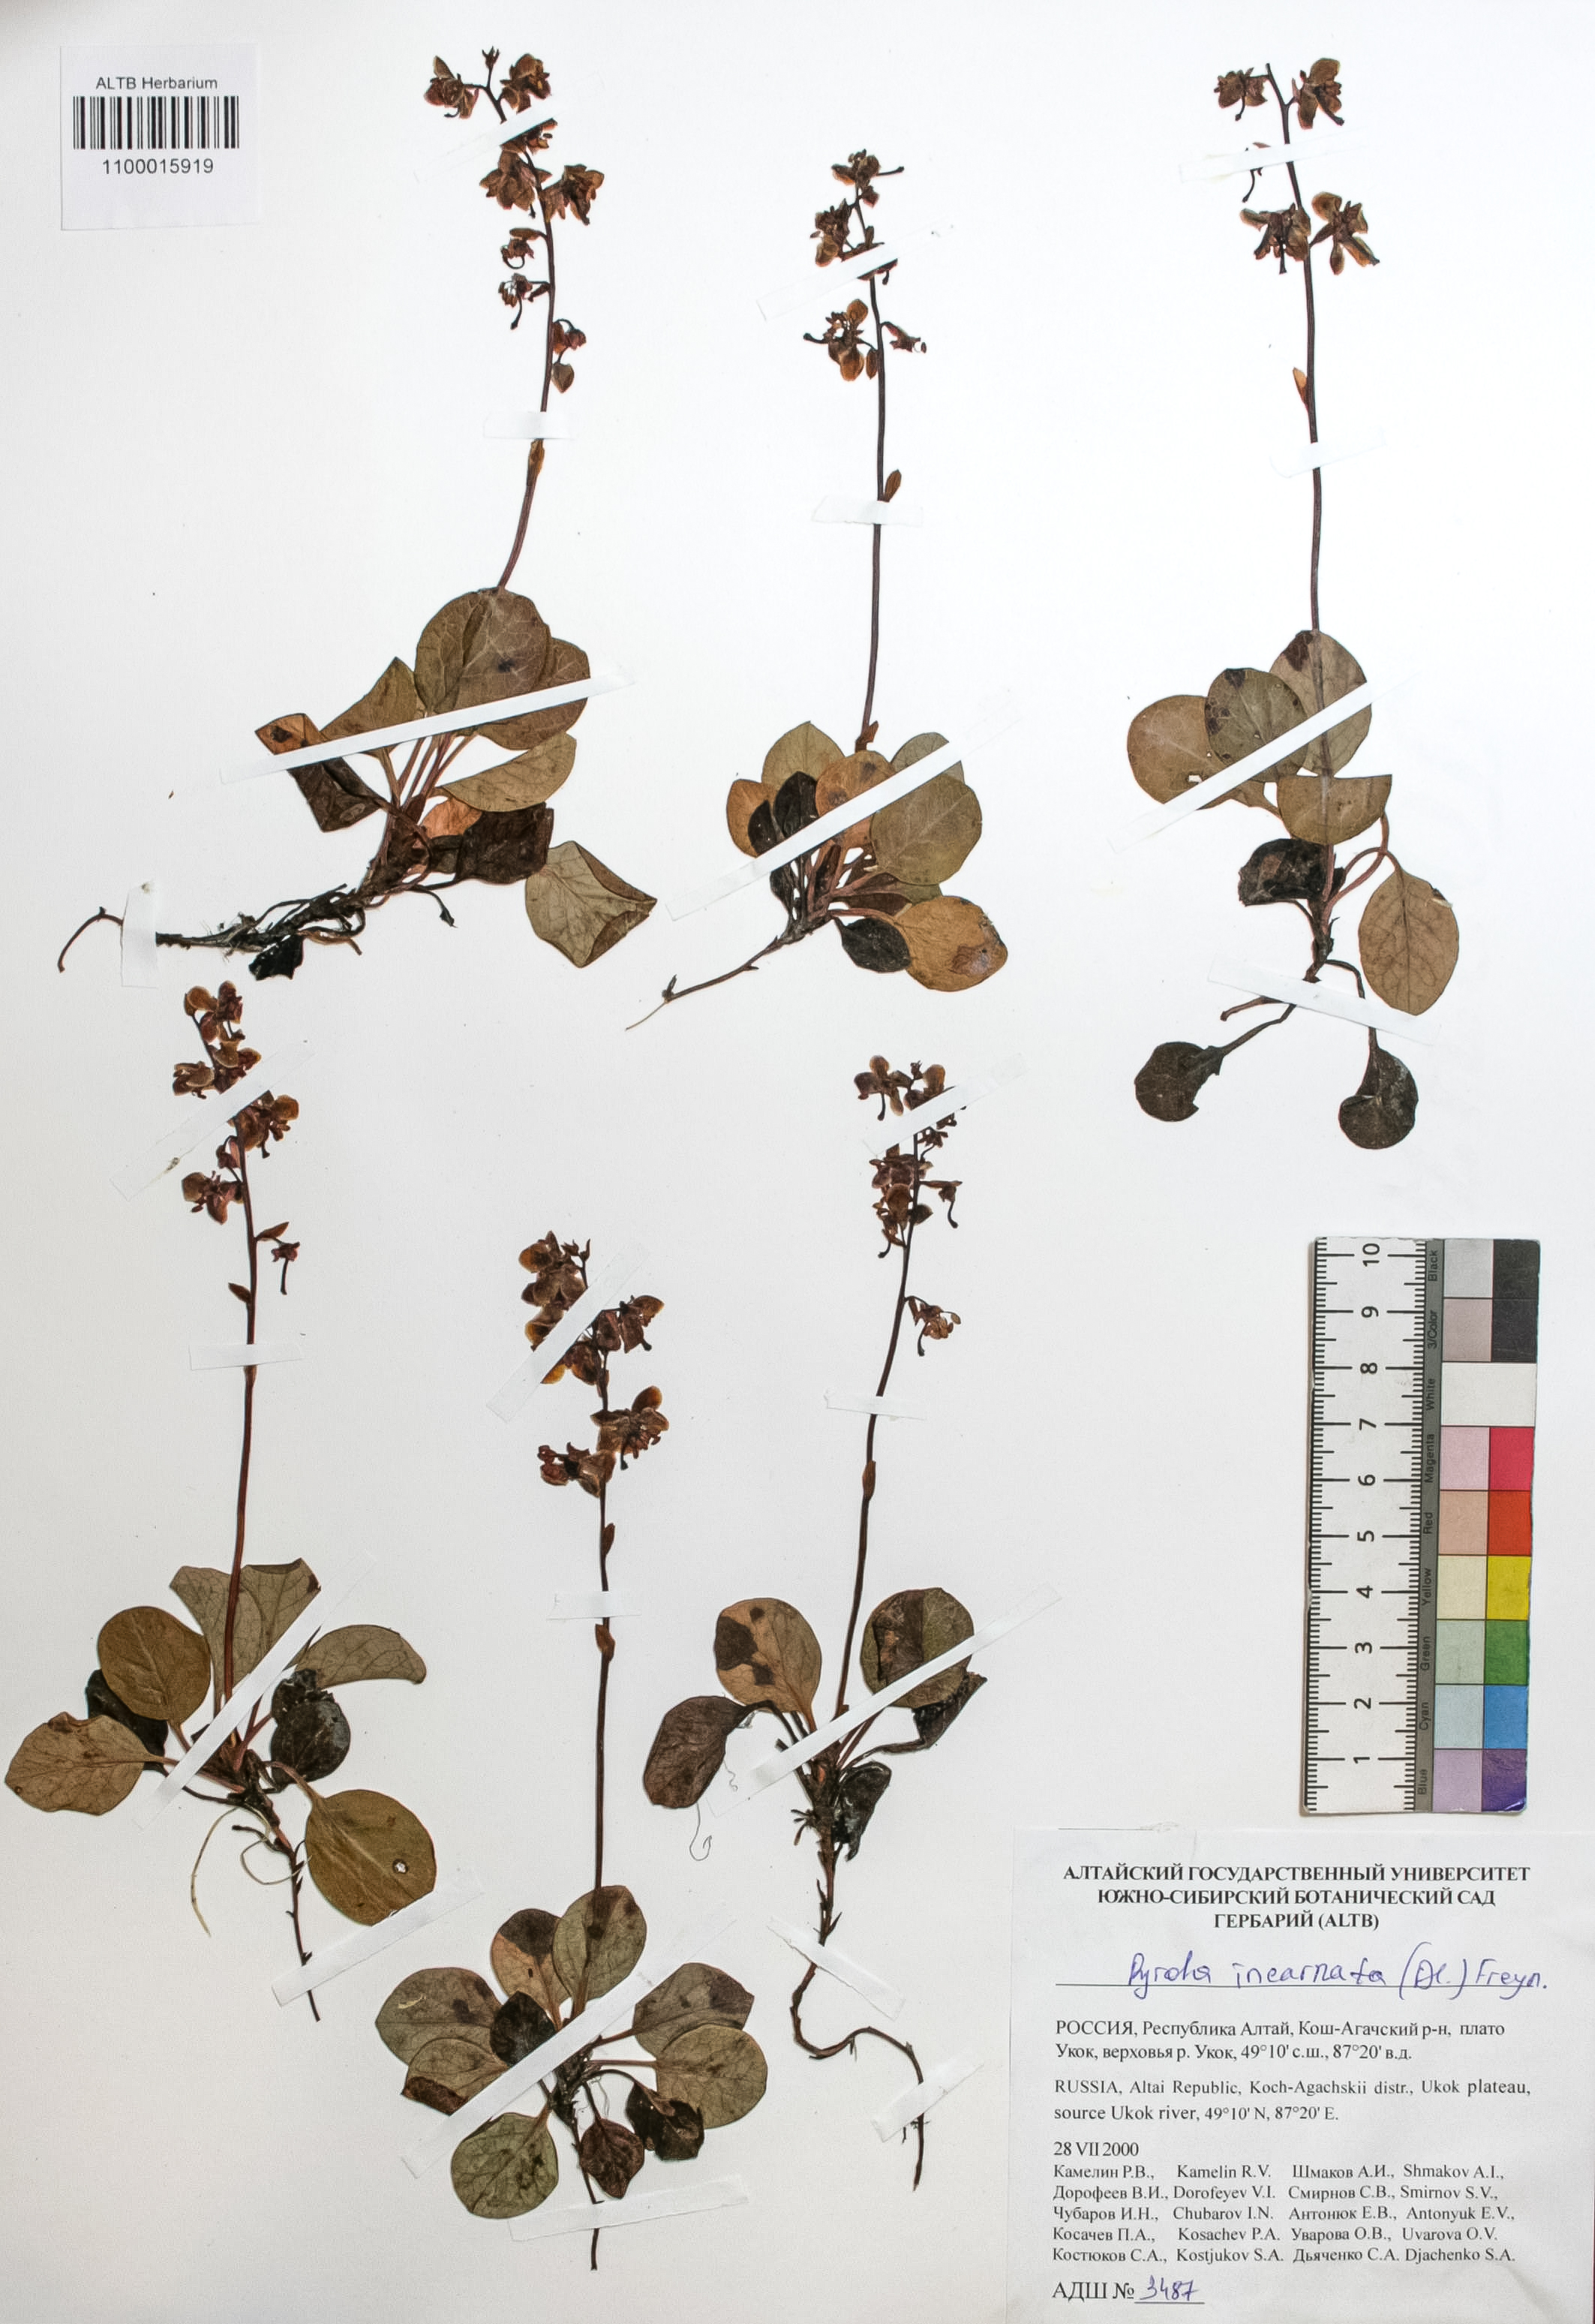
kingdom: Plantae
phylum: Tracheophyta
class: Magnoliopsida
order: Ericales
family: Ericaceae
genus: Pyrola
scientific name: Pyrola asarifolia
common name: Bog wintergreen
